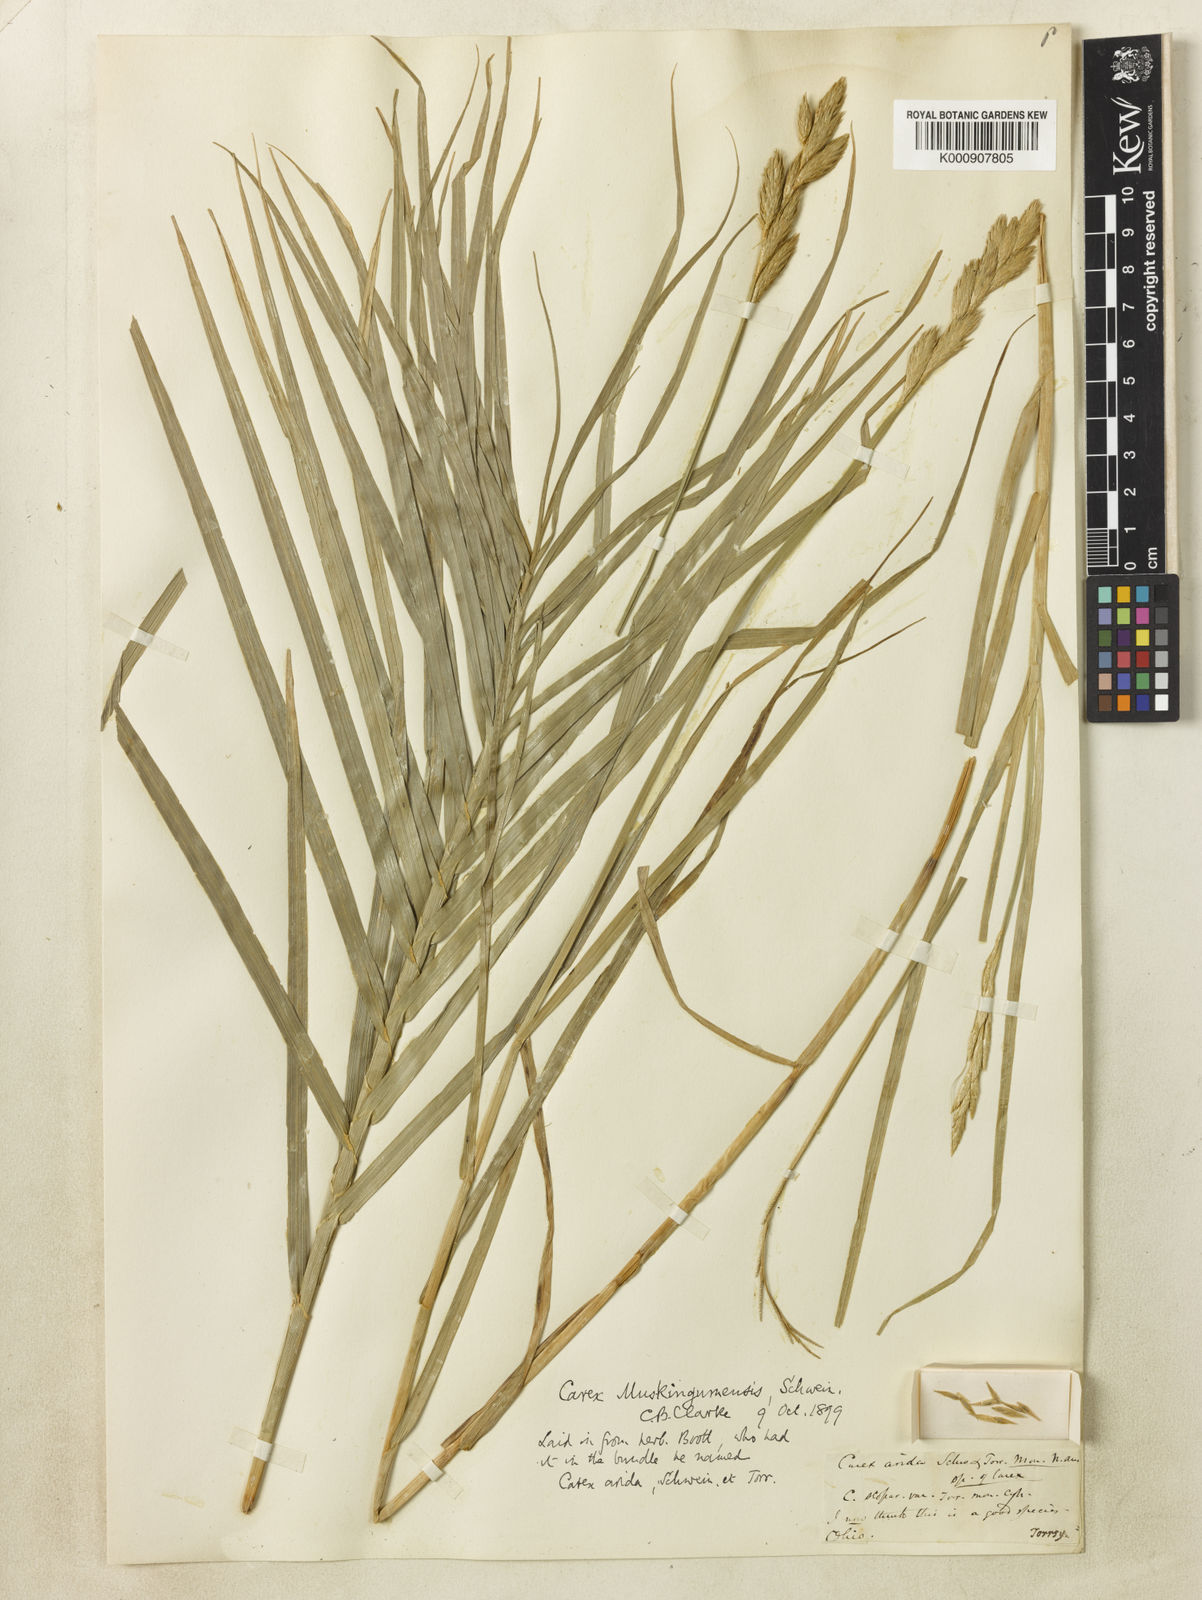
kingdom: Plantae
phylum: Tracheophyta
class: Liliopsida
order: Poales
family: Cyperaceae
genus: Carex
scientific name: Carex muskingumensis
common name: Muskingum sedge
